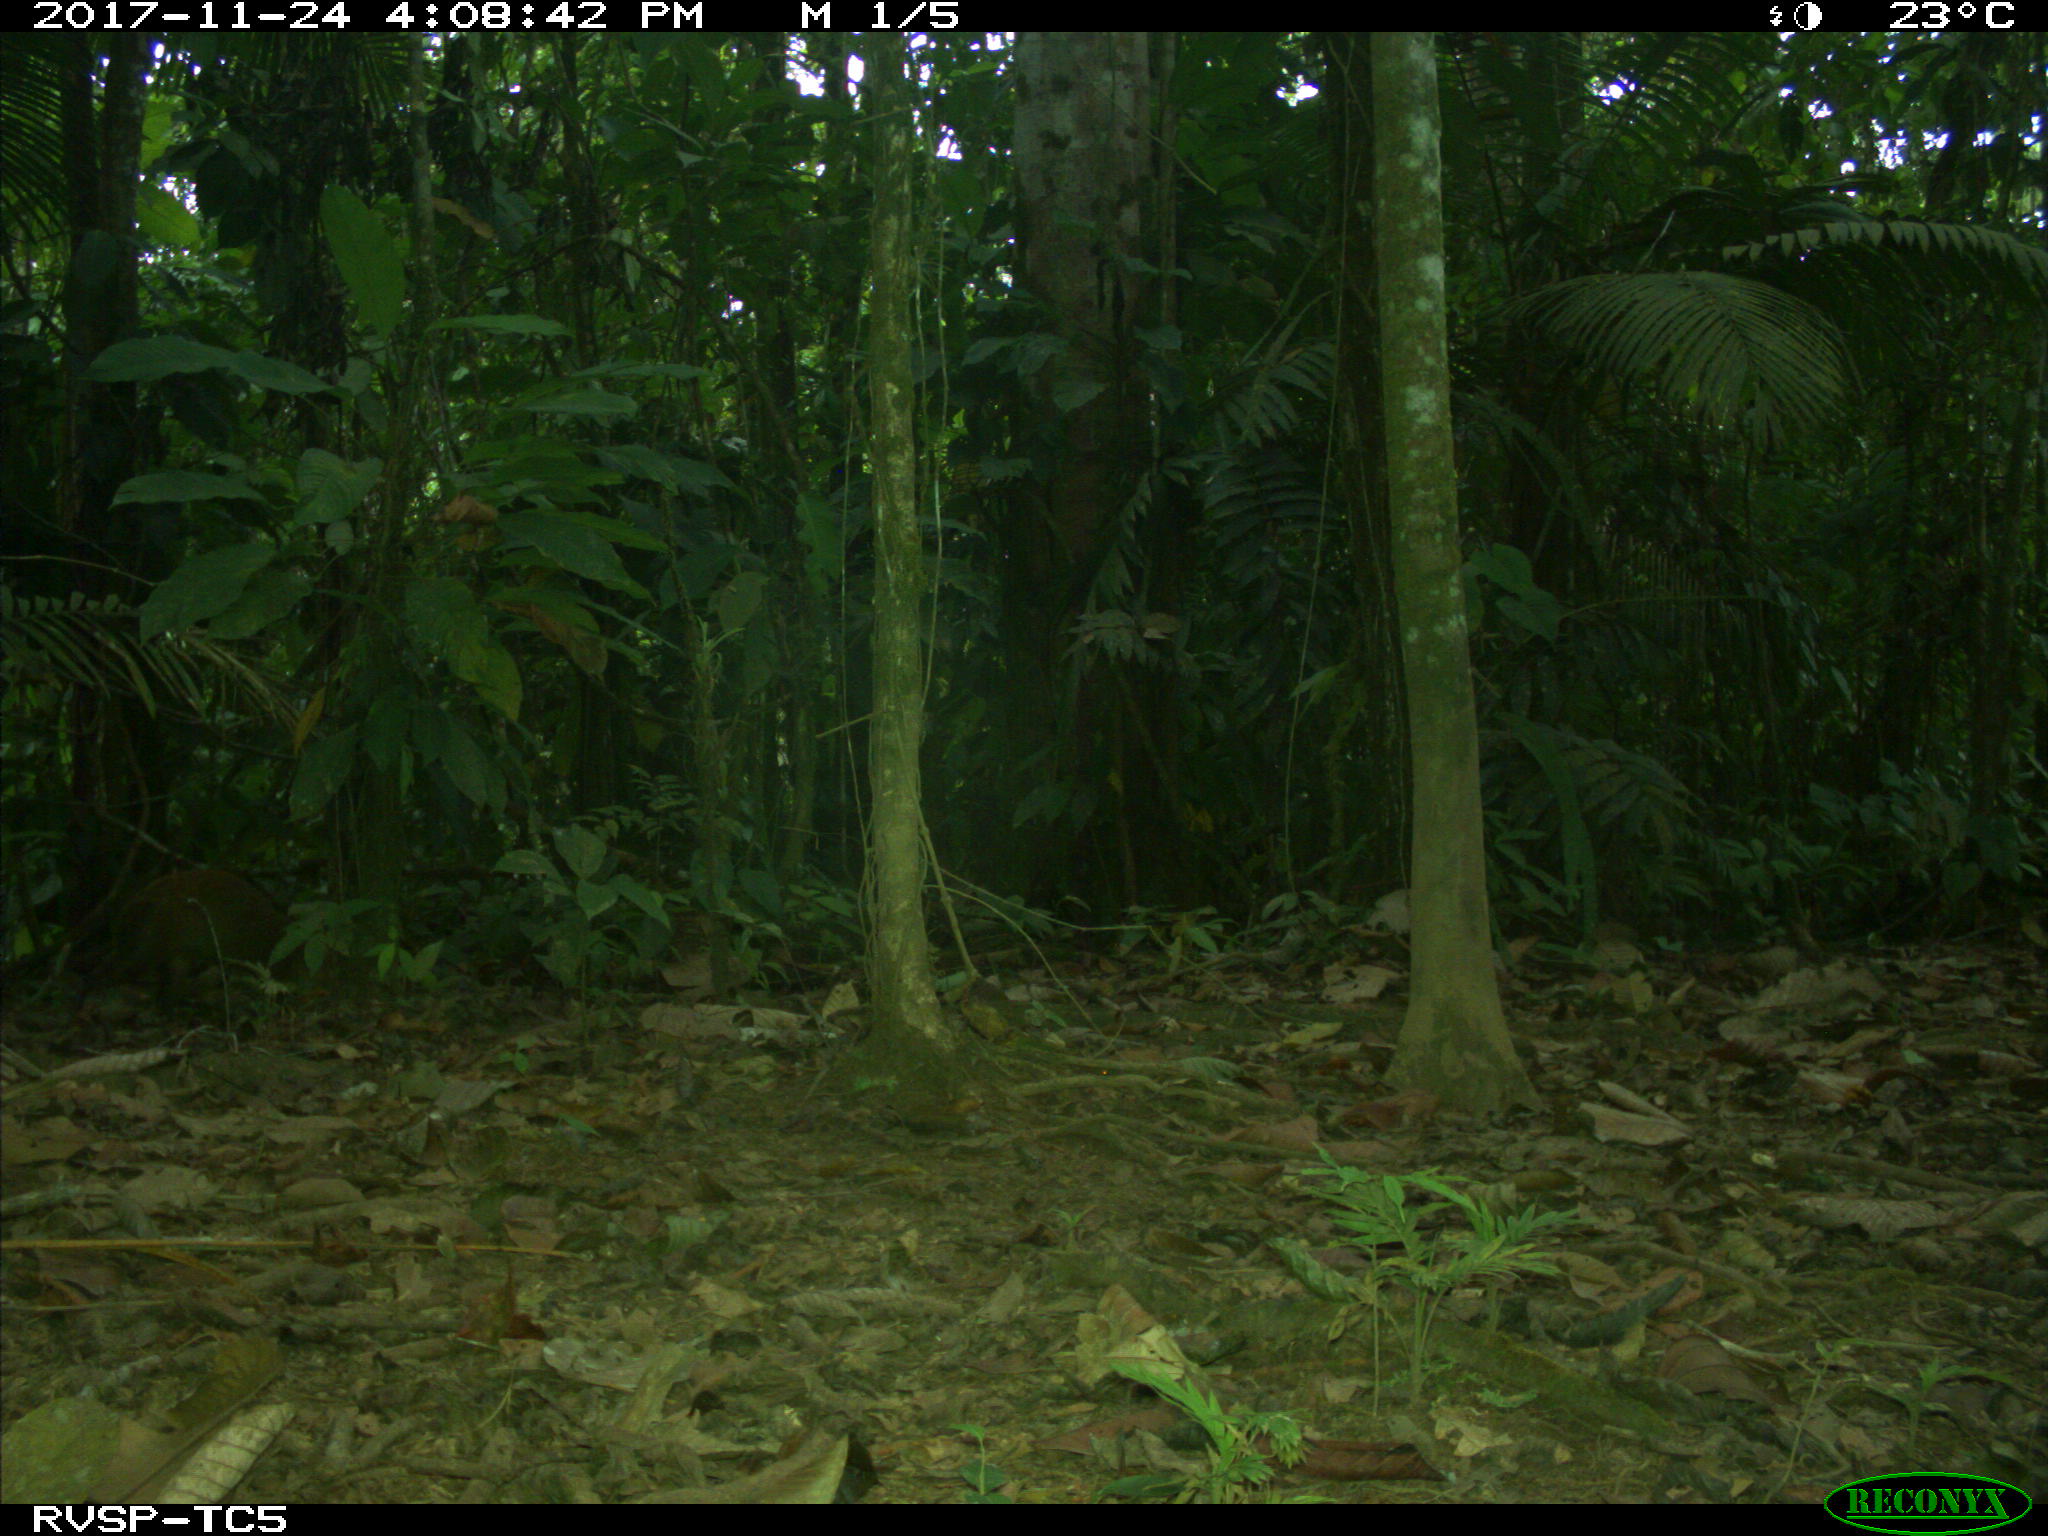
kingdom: Animalia
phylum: Chordata
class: Mammalia
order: Rodentia
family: Dasyproctidae
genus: Dasyprocta
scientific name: Dasyprocta punctata
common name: Central american agouti
